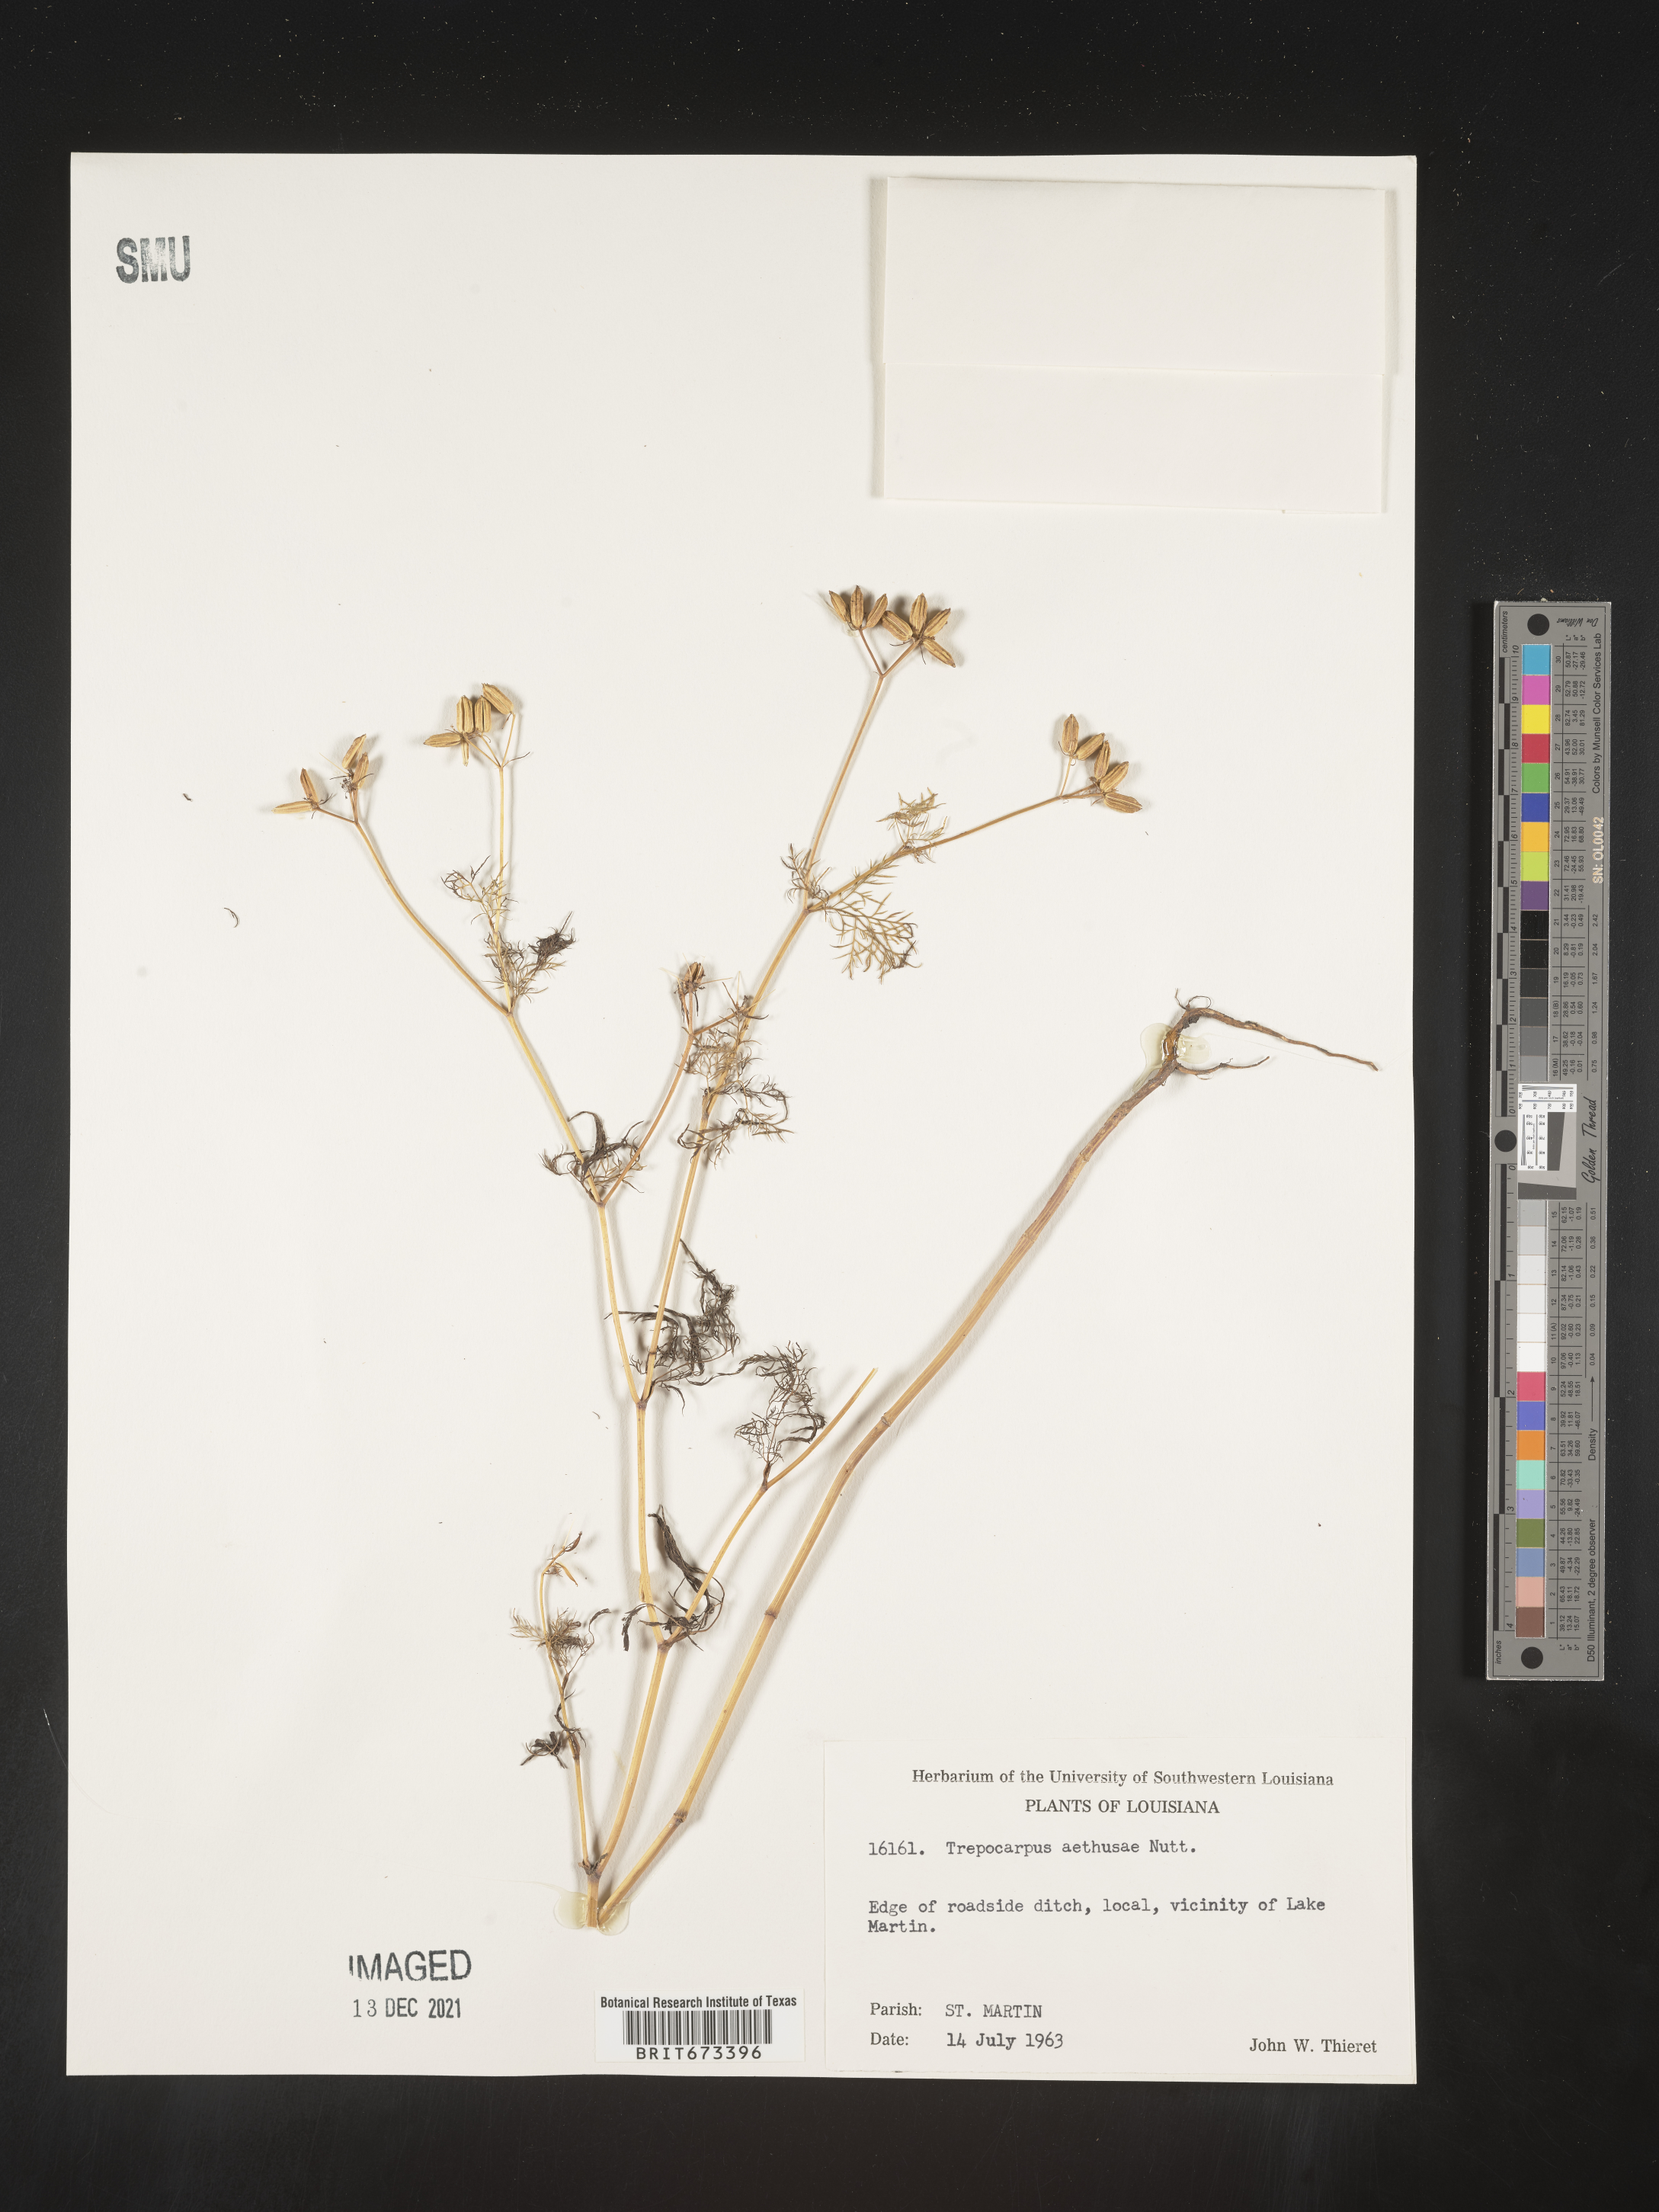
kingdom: Plantae
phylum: Tracheophyta
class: Magnoliopsida
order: Apiales
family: Apiaceae
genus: Trepocarpus
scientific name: Trepocarpus aethusae
